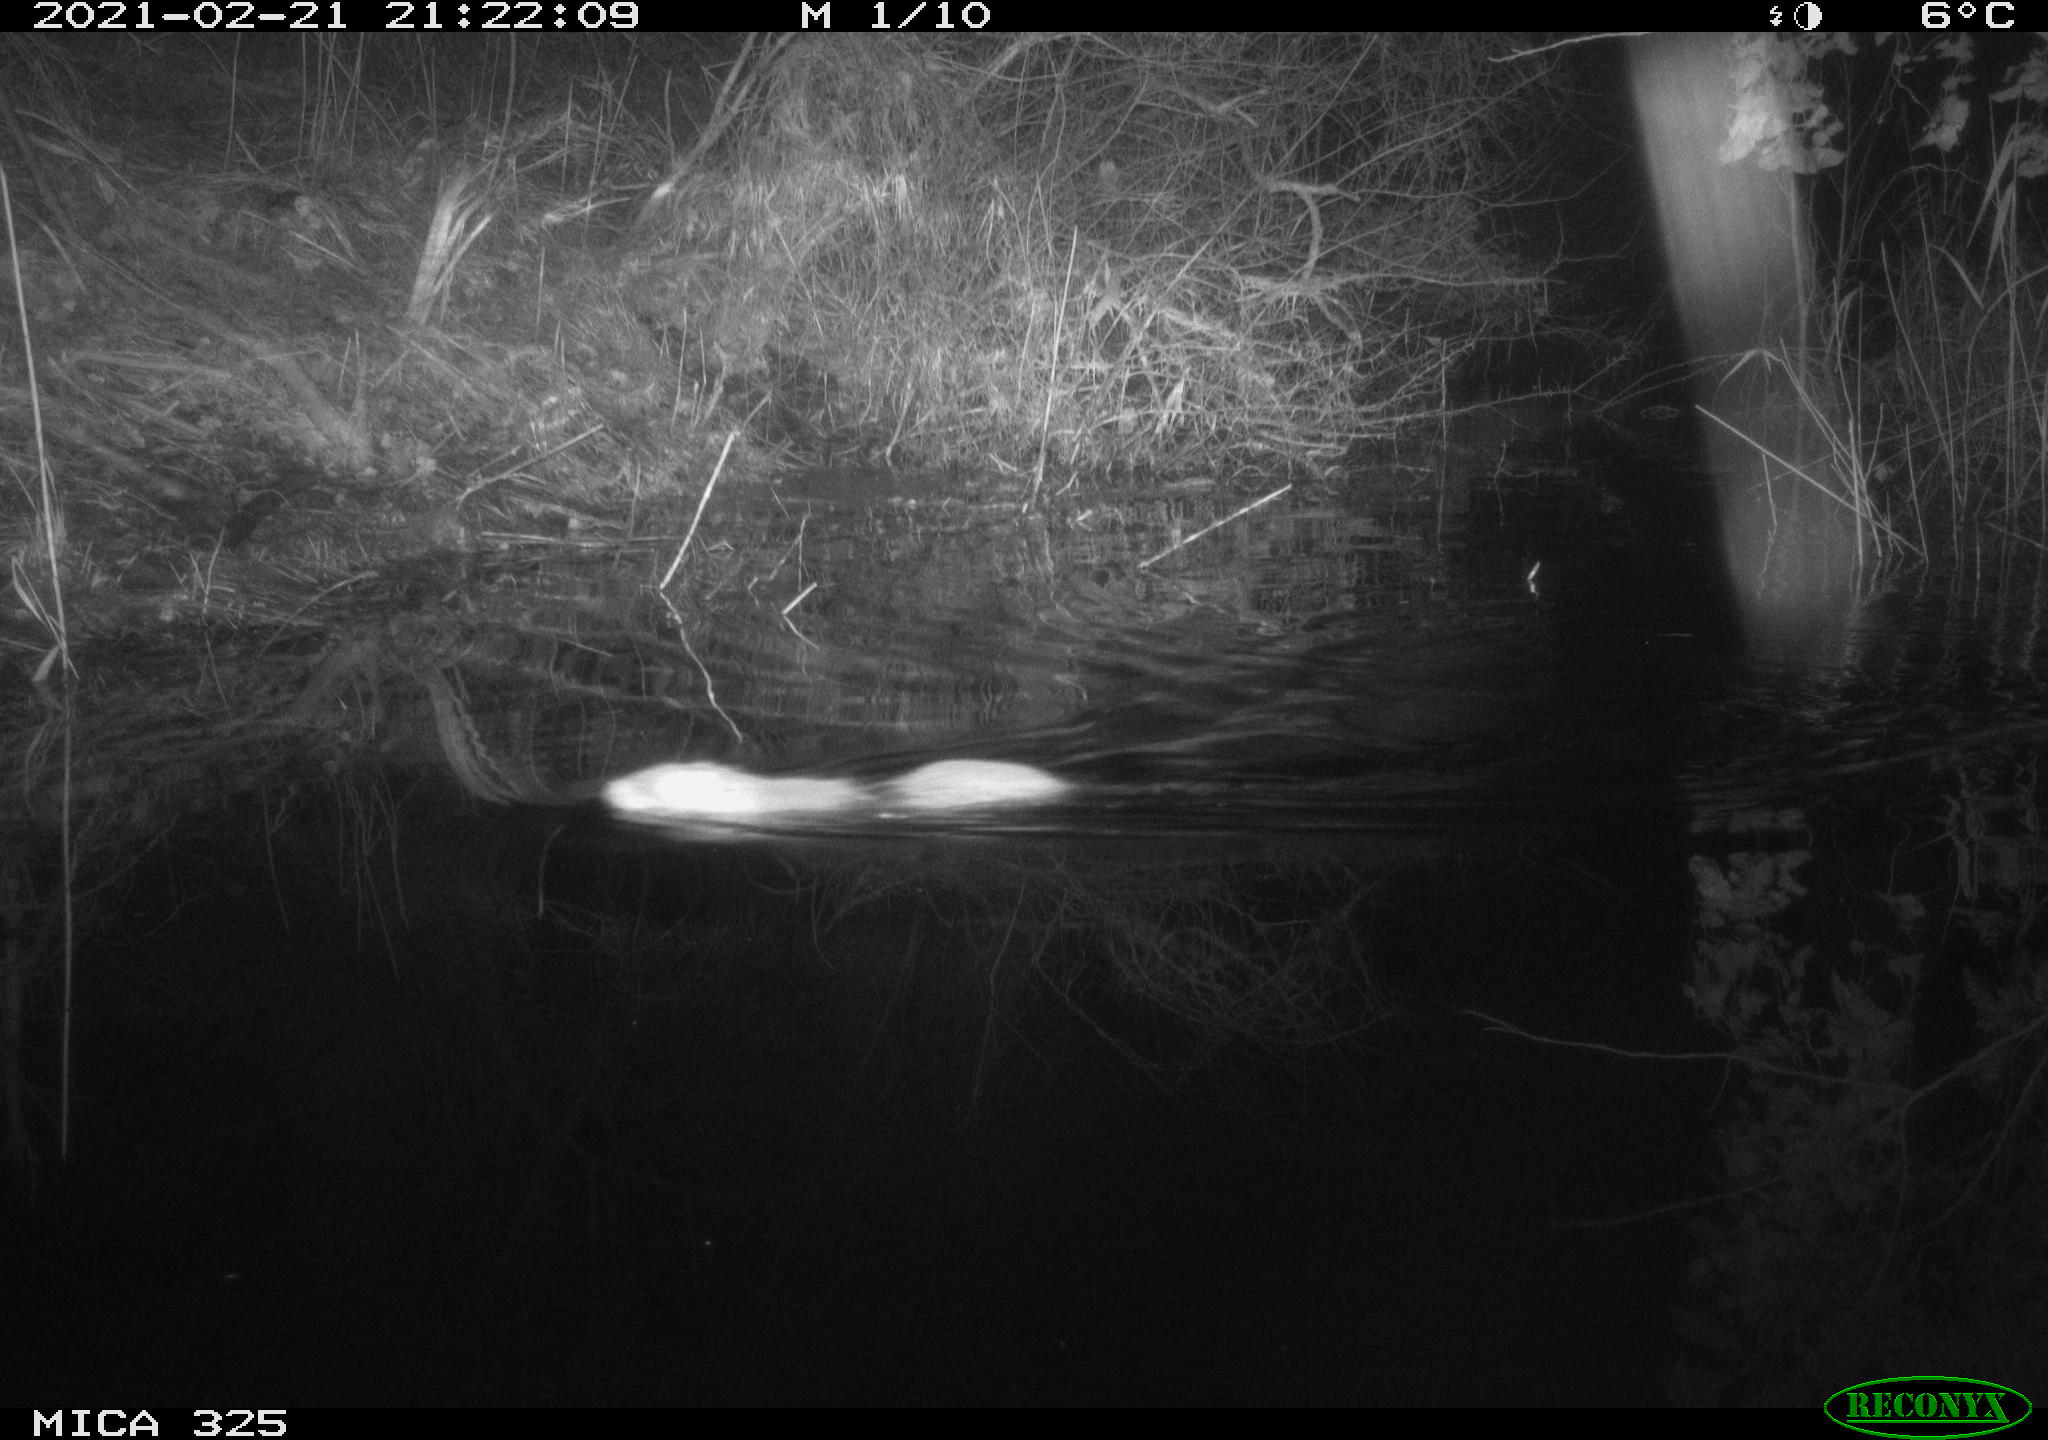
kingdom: Animalia
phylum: Chordata
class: Mammalia
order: Rodentia
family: Myocastoridae
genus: Myocastor
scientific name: Myocastor coypus
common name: Coypu
